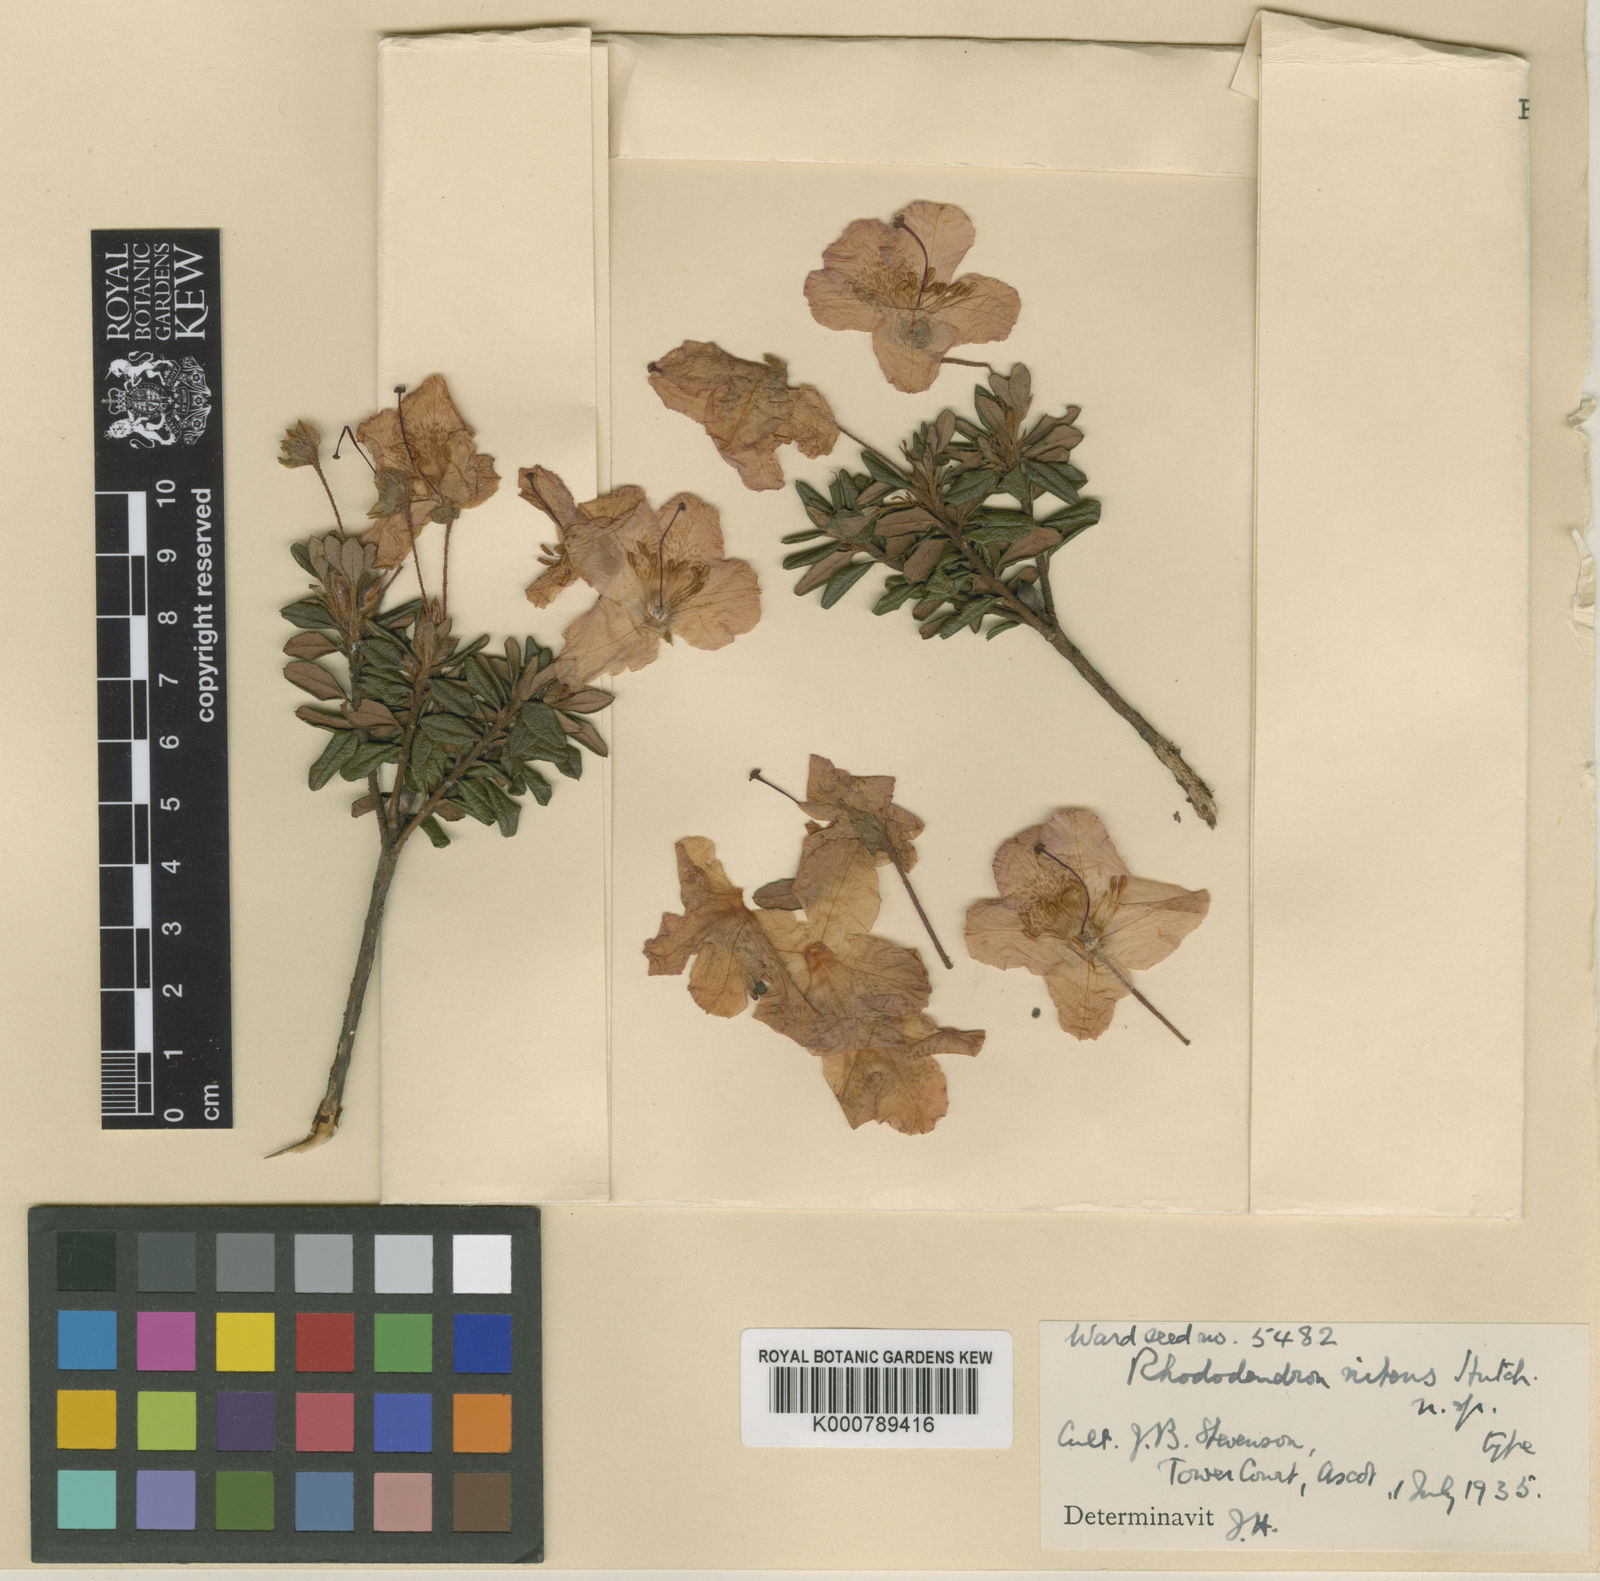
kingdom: Plantae
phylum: Tracheophyta
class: Magnoliopsida
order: Ericales
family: Ericaceae
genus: Rhododendron
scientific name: Rhododendron calostrotum
